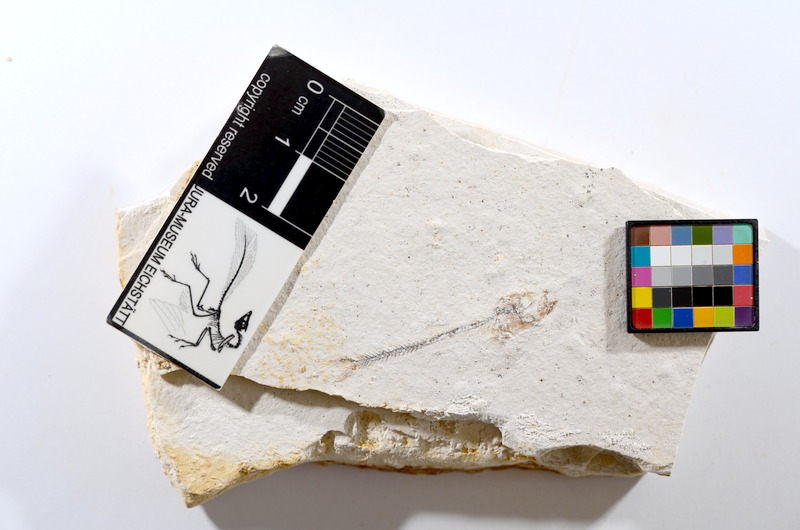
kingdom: Animalia
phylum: Chordata
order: Salmoniformes
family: Orthogonikleithridae
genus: Orthogonikleithrus
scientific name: Orthogonikleithrus hoelli
